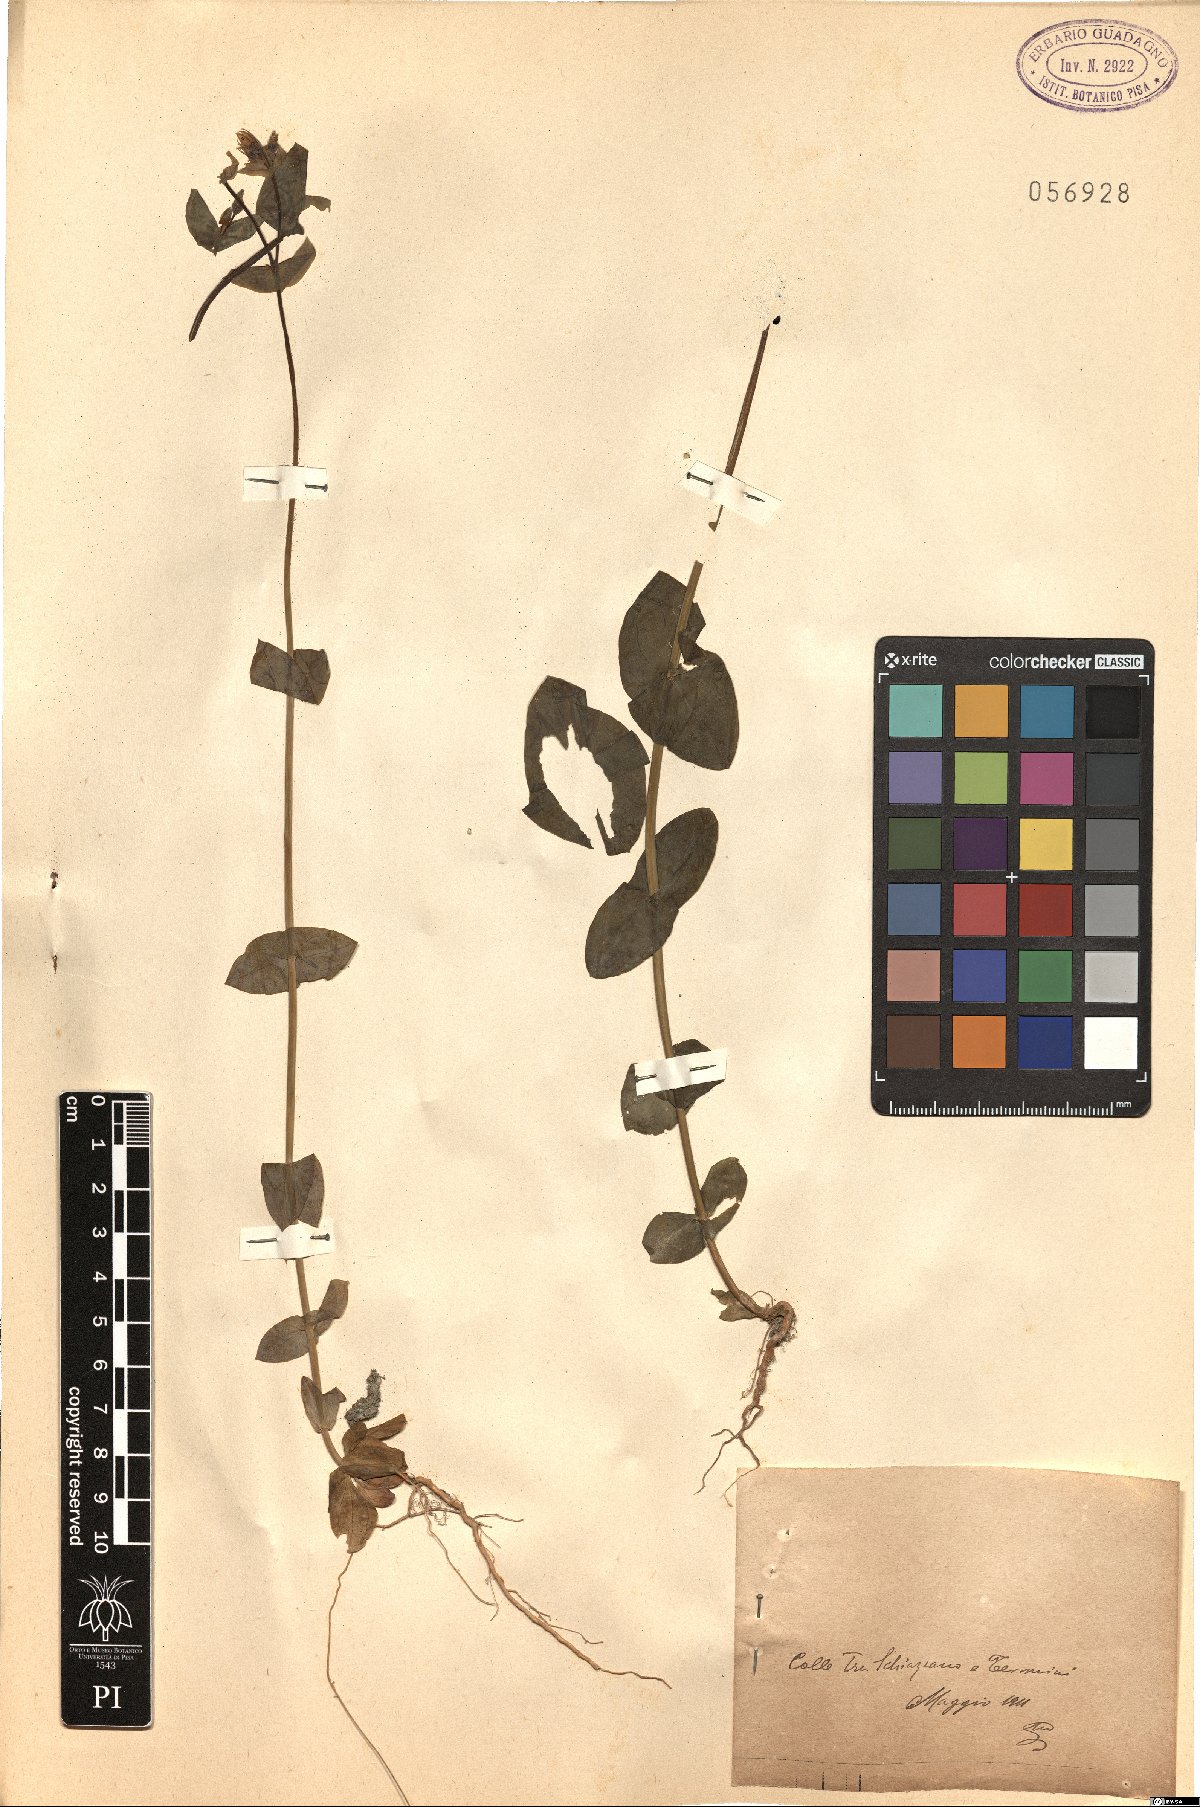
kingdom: Plantae
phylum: Tracheophyta
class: Magnoliopsida
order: Gentianales
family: Gentianaceae
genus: Blackstonia
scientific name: Blackstonia
